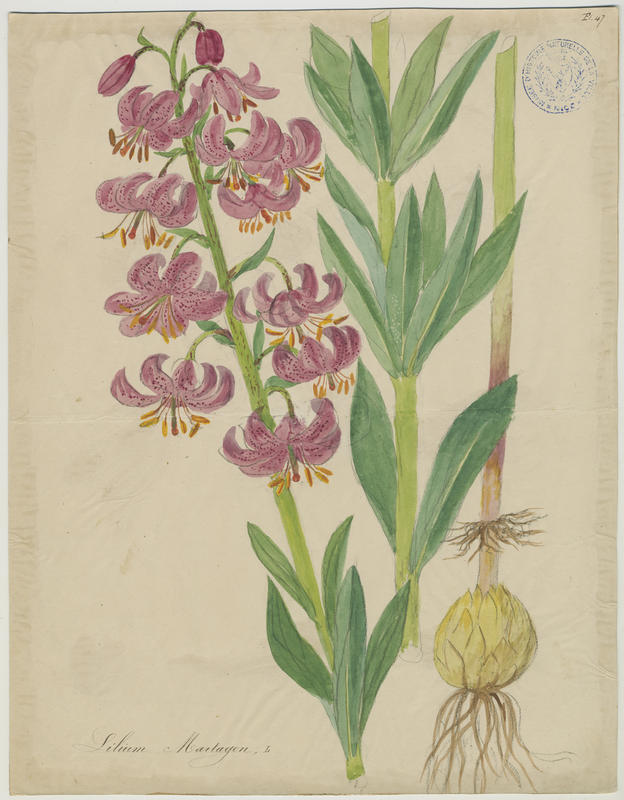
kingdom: Plantae
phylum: Tracheophyta
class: Liliopsida
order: Liliales
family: Liliaceae
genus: Lilium
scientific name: Lilium martagon
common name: Martagon lily
